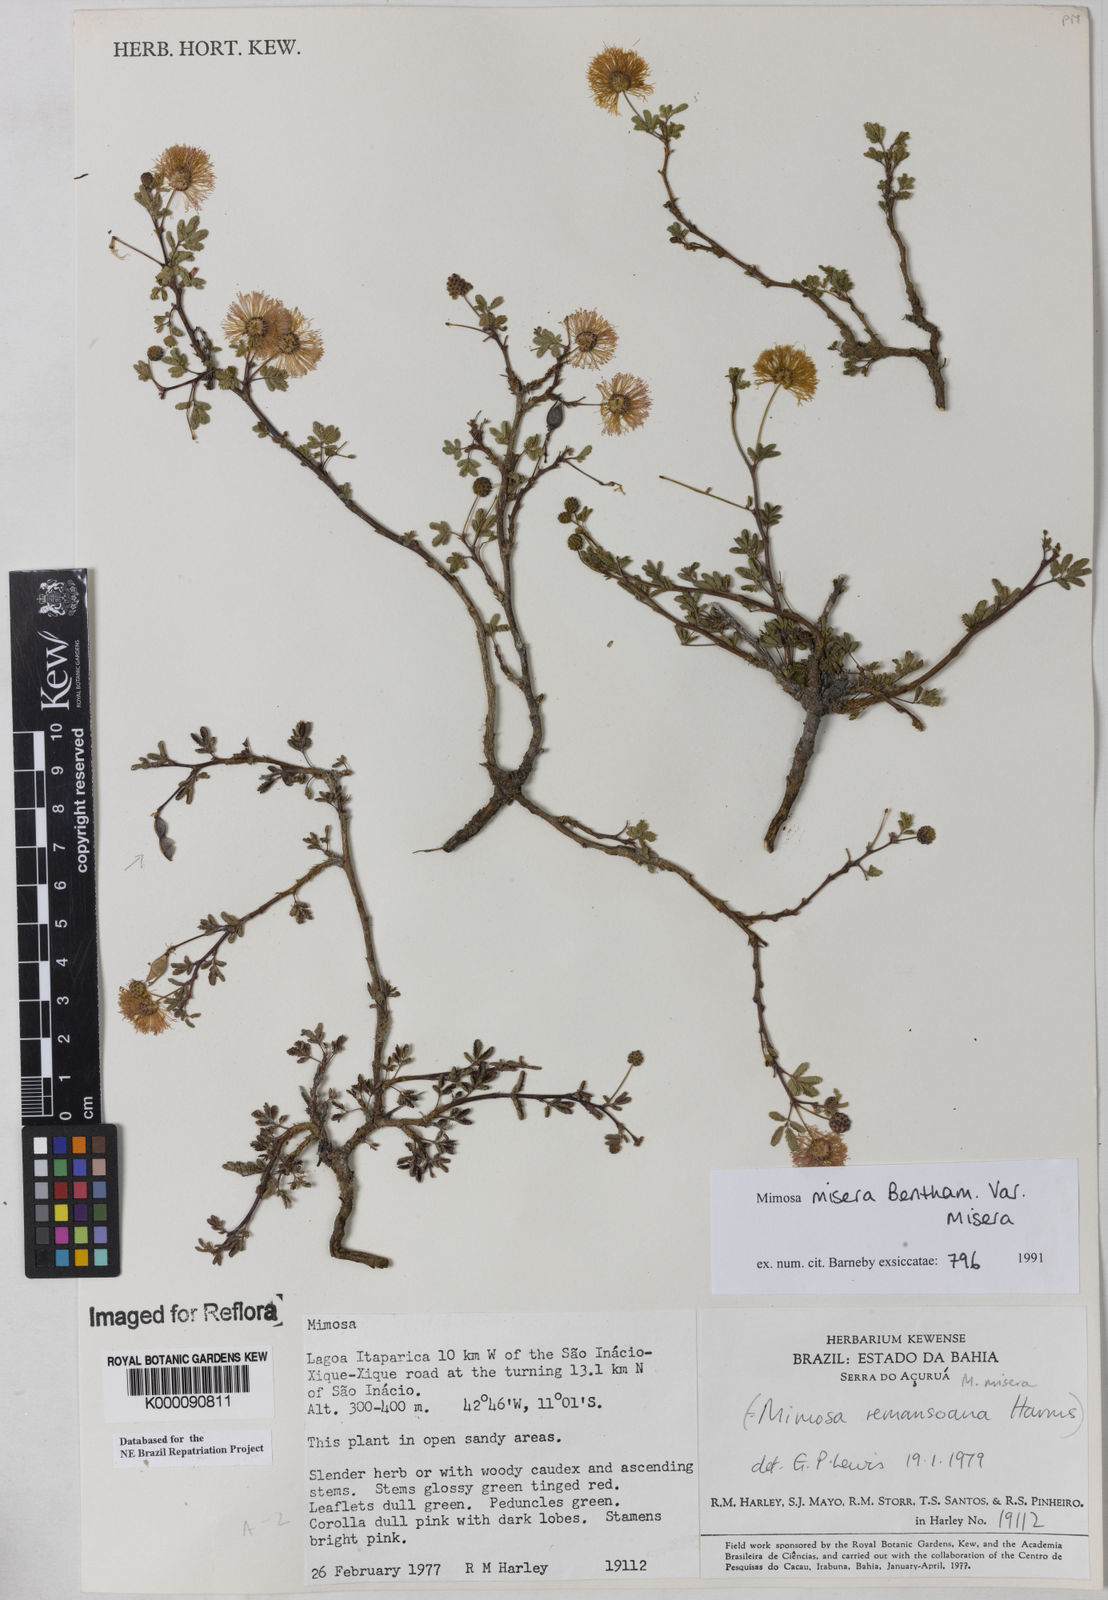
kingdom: Plantae
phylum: Tracheophyta
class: Magnoliopsida
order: Fabales
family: Fabaceae
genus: Mimosa
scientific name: Mimosa misera
